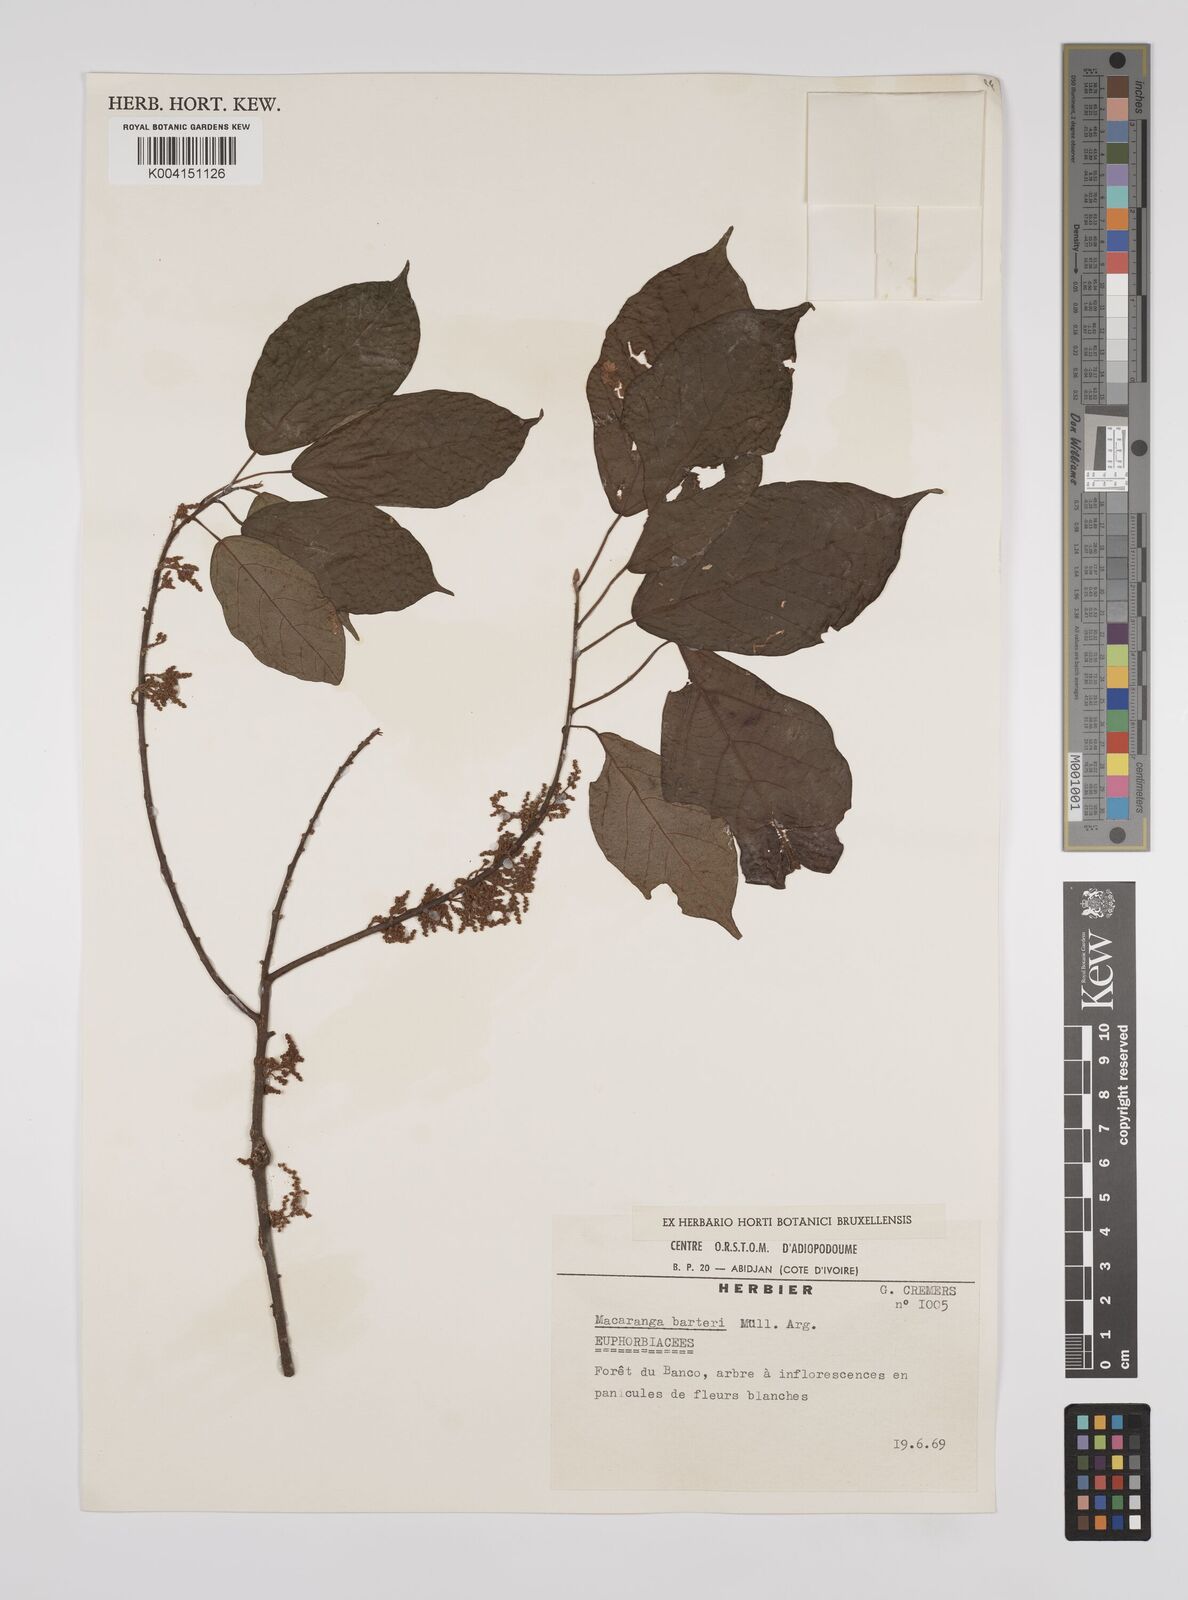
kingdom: Plantae
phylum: Tracheophyta
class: Magnoliopsida
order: Malpighiales
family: Euphorbiaceae
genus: Macaranga
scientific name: Macaranga barteri
